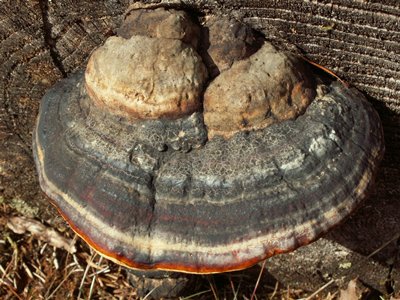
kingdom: Fungi
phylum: Basidiomycota
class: Agaricomycetes
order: Polyporales
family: Fomitopsidaceae
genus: Fomitopsis
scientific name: Fomitopsis pinicola
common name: randbæltet hovporesvamp
